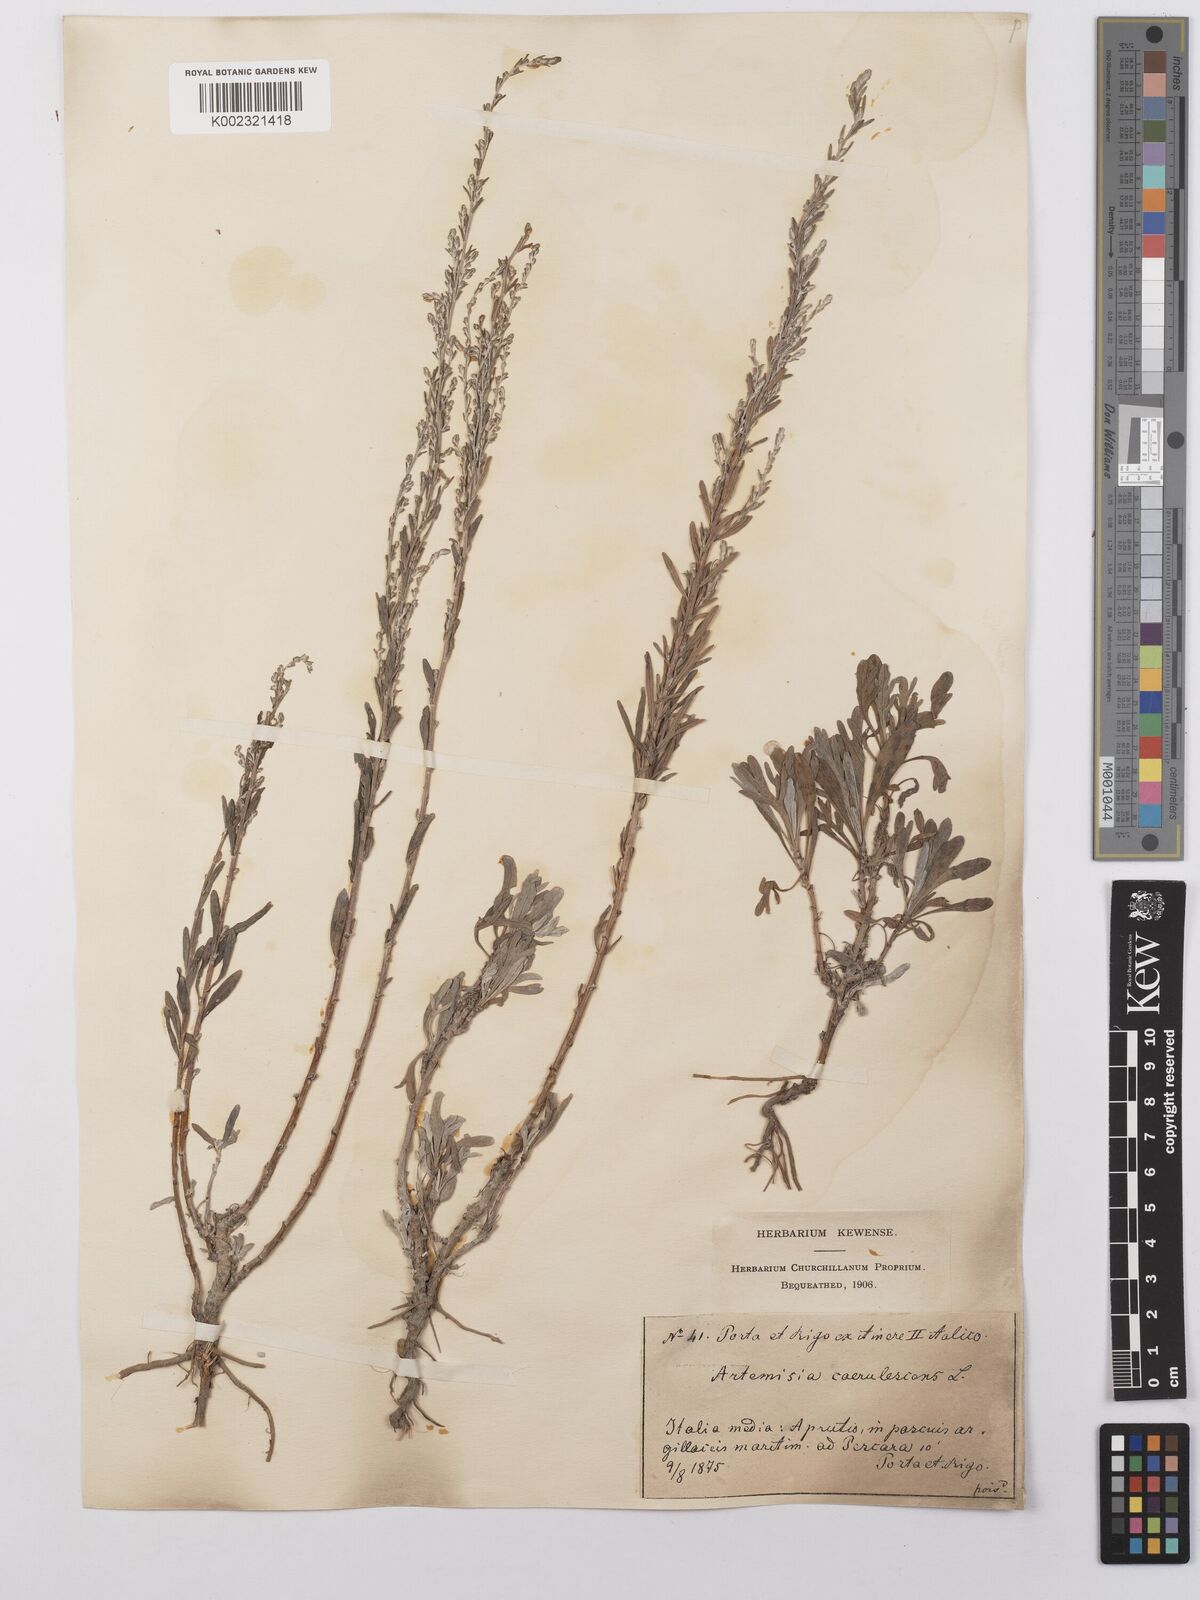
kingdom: Plantae
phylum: Tracheophyta
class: Magnoliopsida
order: Asterales
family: Asteraceae
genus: Artemisia
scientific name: Artemisia caerulescens
